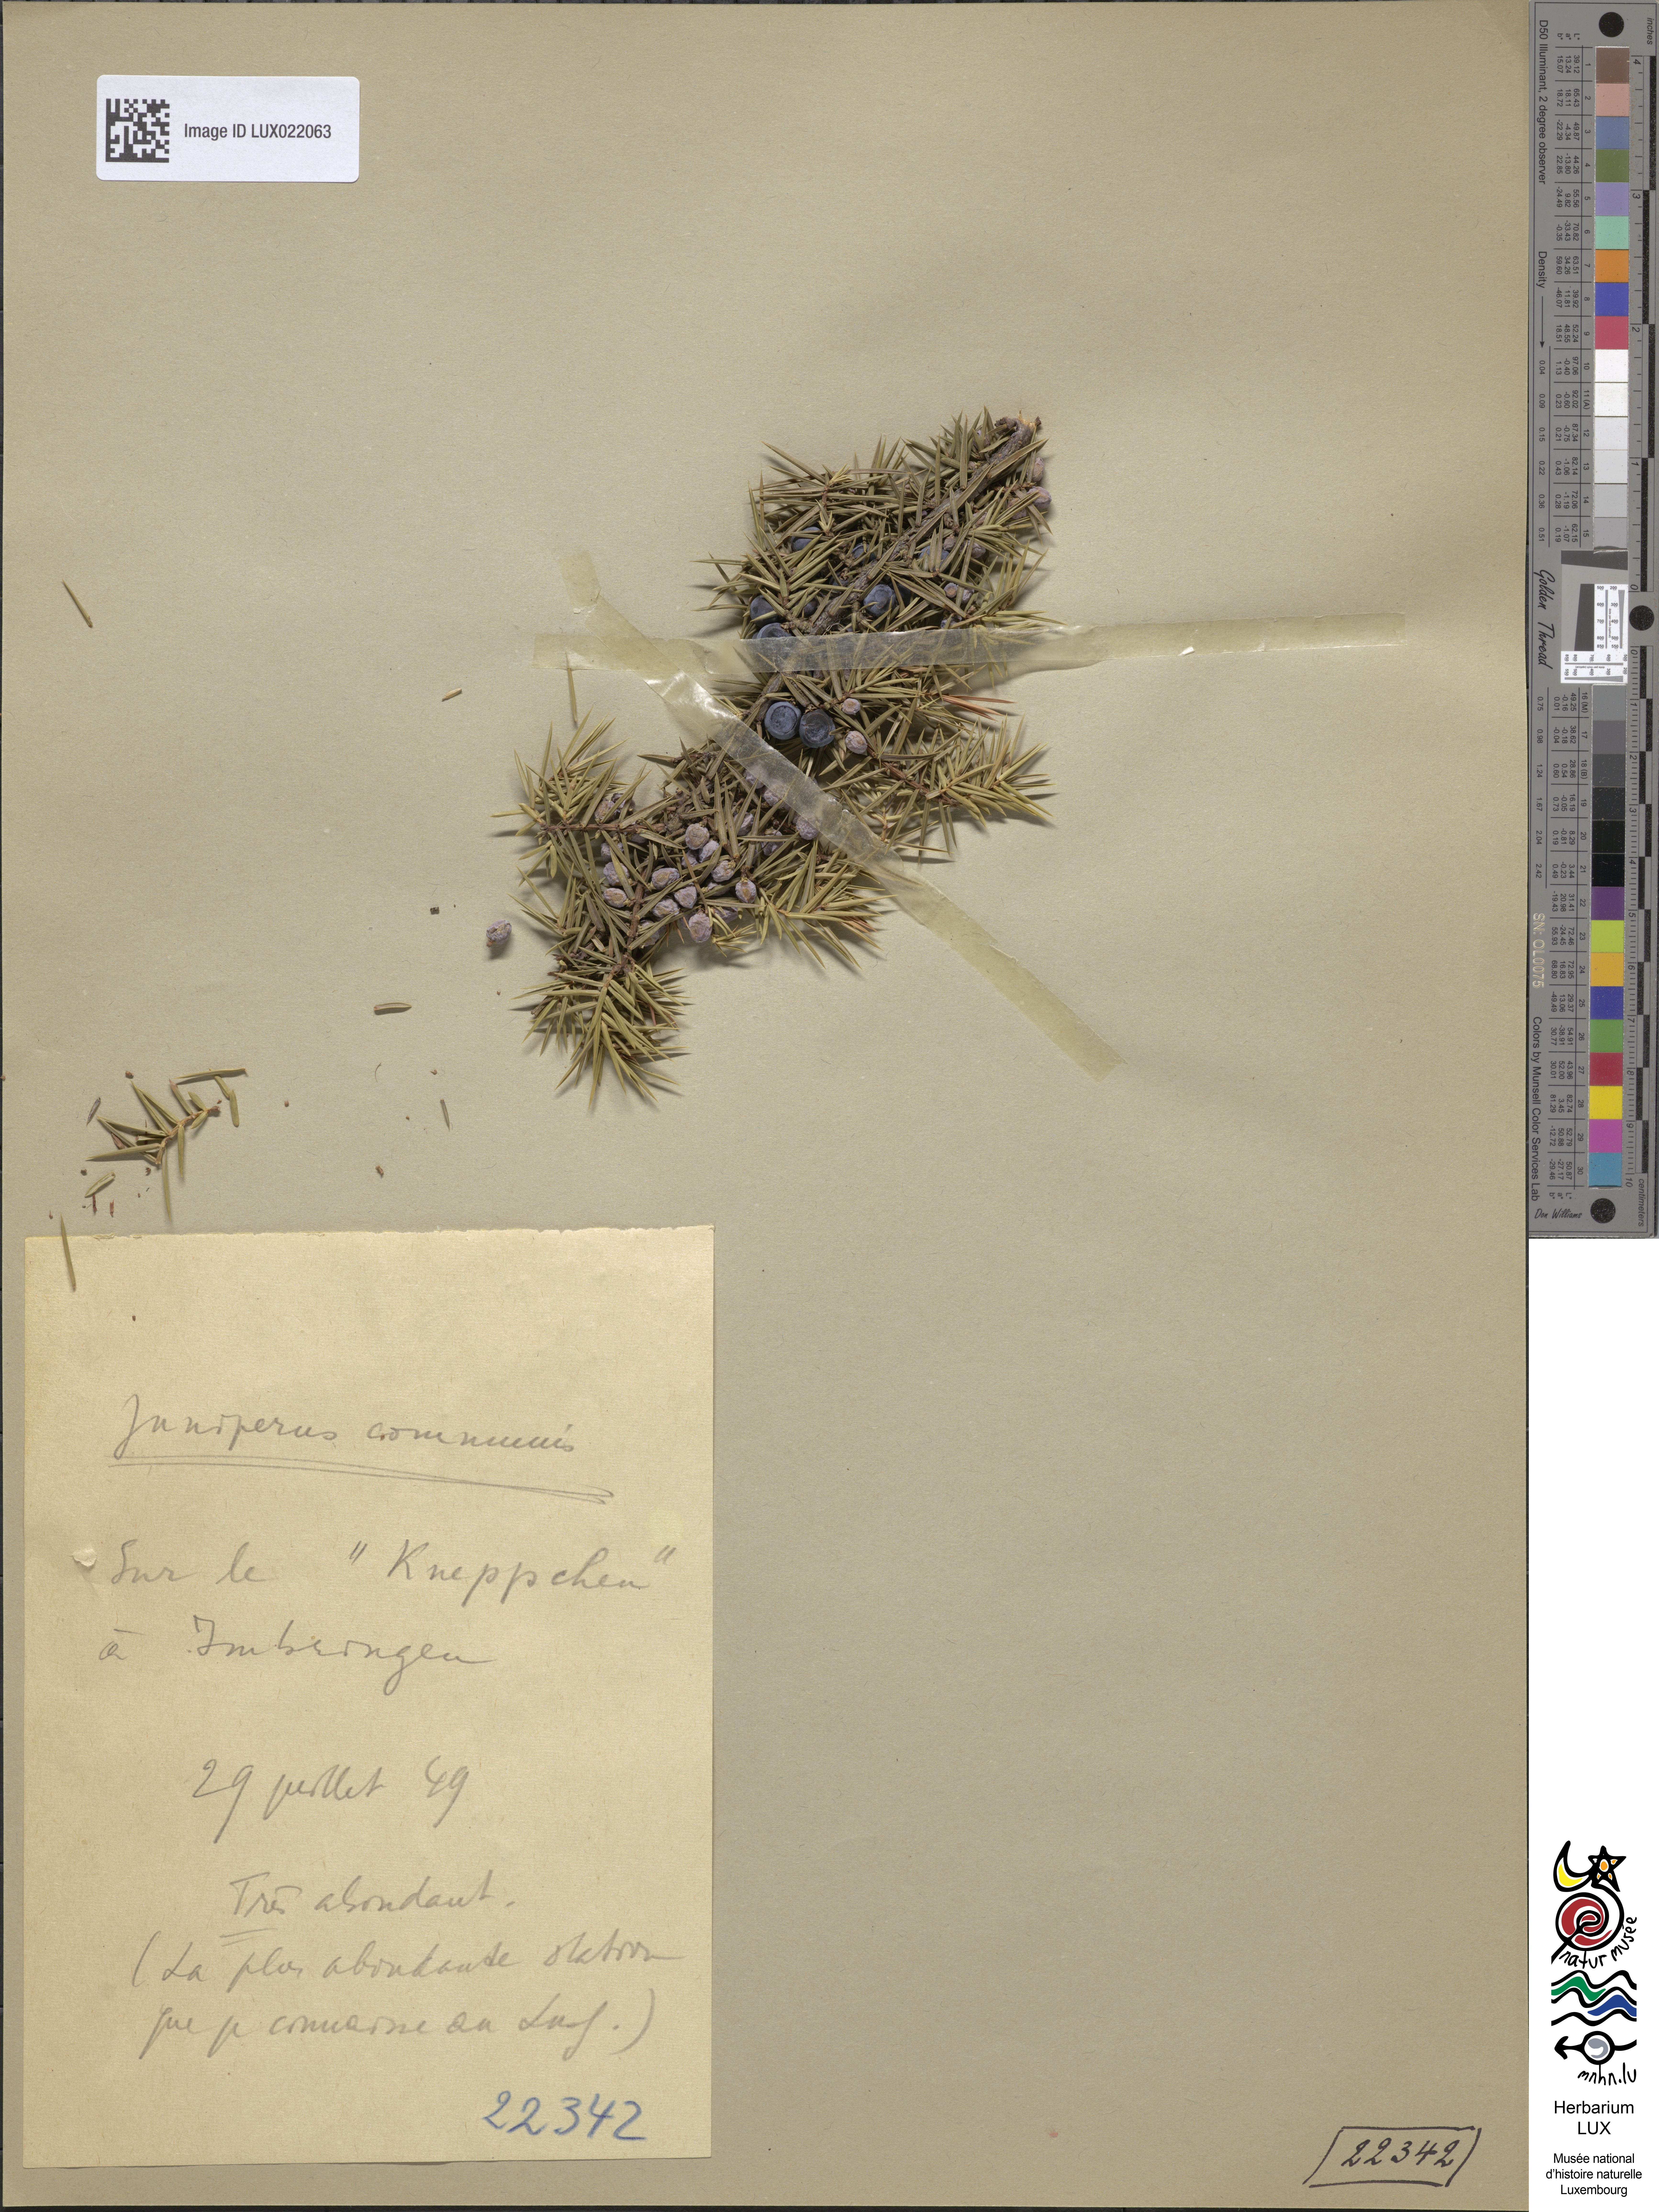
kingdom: Plantae
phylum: Tracheophyta
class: Pinopsida
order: Pinales
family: Cupressaceae
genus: Juniperus
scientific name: Juniperus communis
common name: Common juniper
